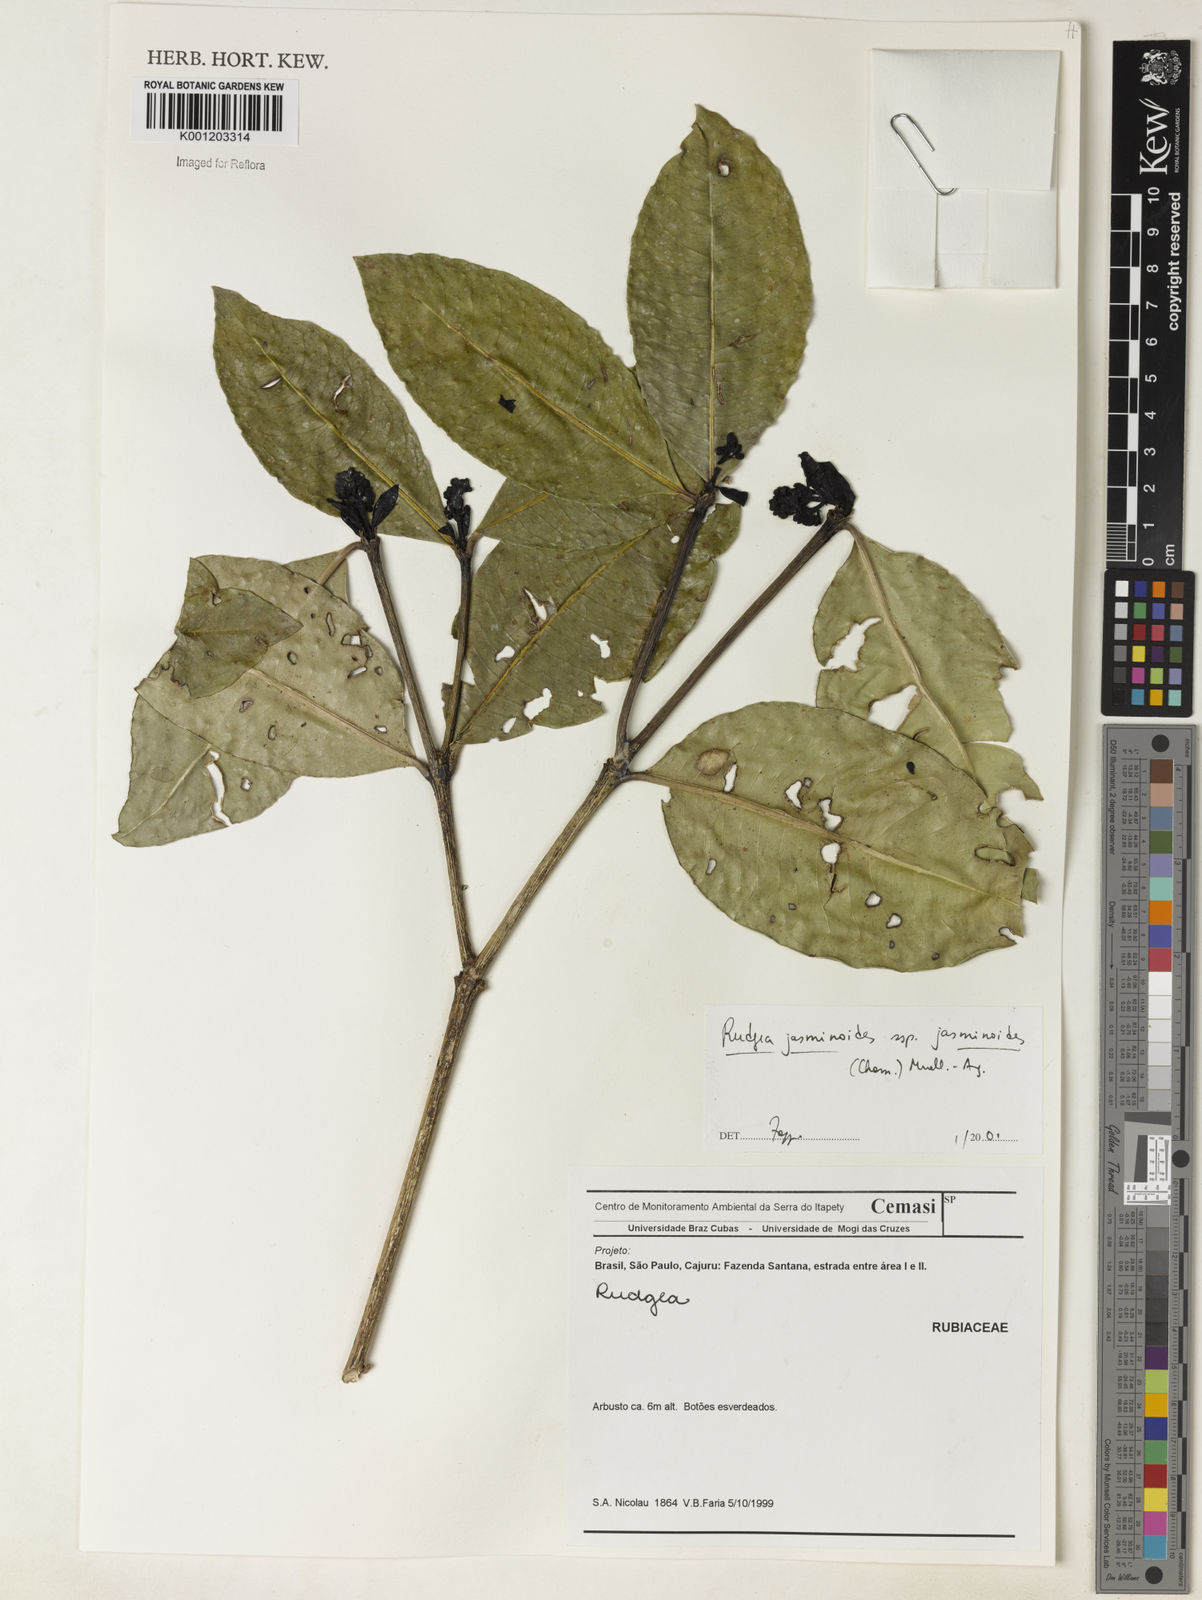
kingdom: Plantae
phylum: Tracheophyta
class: Magnoliopsida
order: Gentianales
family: Rubiaceae
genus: Rudgea
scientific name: Rudgea
